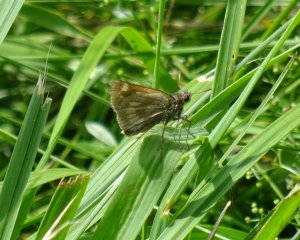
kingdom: Animalia
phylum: Arthropoda
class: Insecta
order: Lepidoptera
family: Hesperiidae
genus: Polites
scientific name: Polites
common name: Long Dash Skipper
